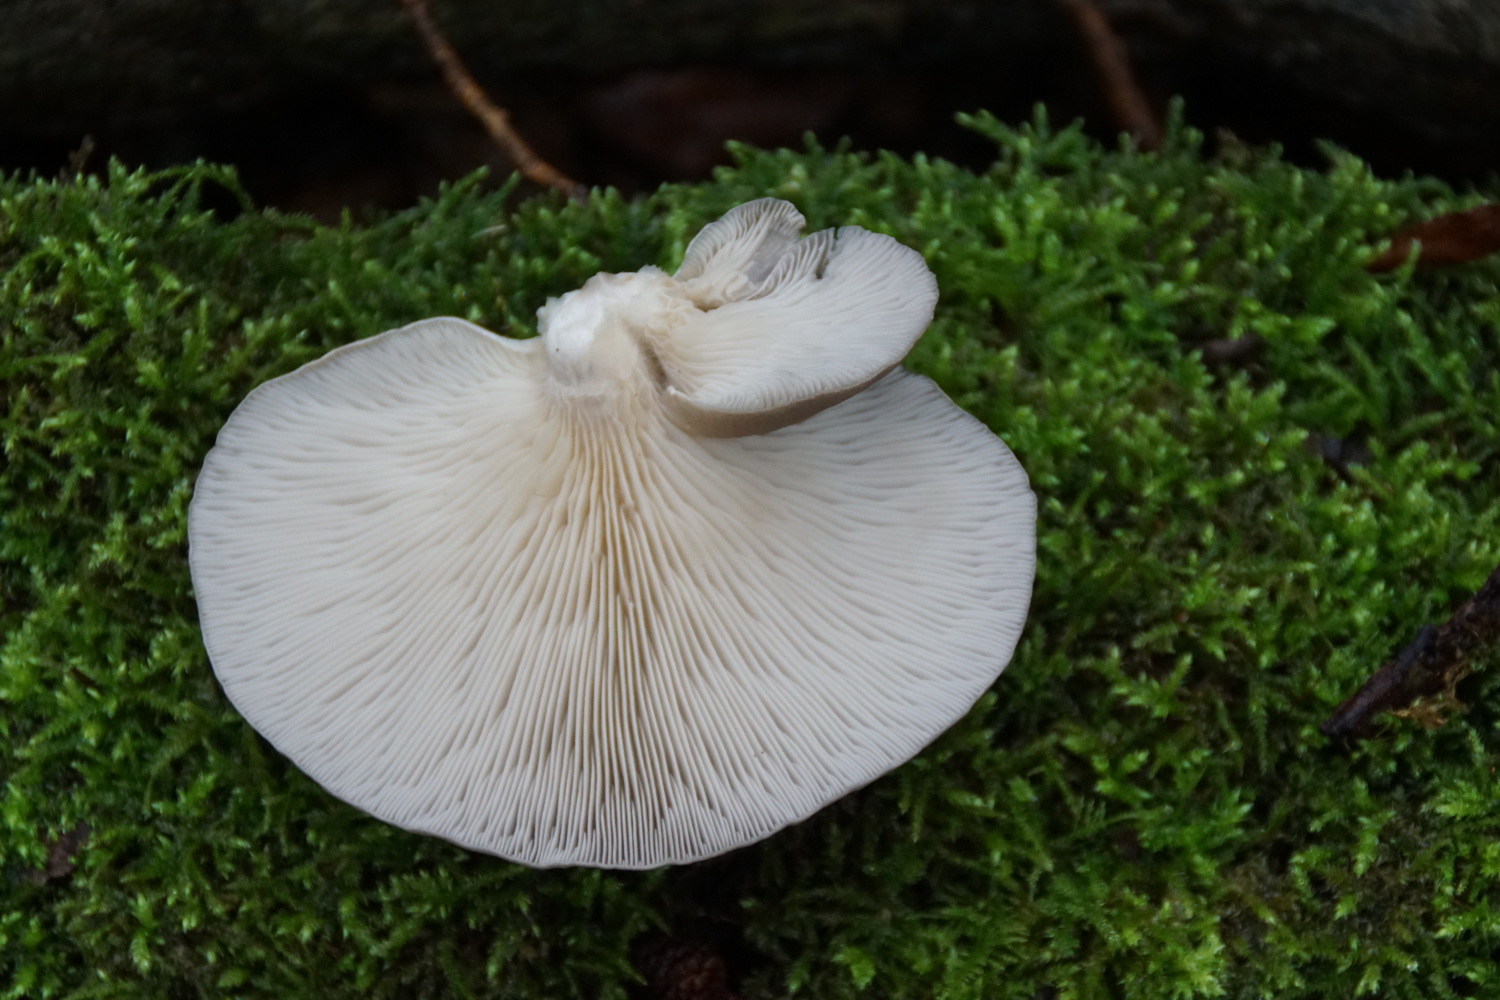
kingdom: Fungi
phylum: Basidiomycota
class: Agaricomycetes
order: Agaricales
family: Pleurotaceae
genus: Pleurotus
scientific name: Pleurotus ostreatus
